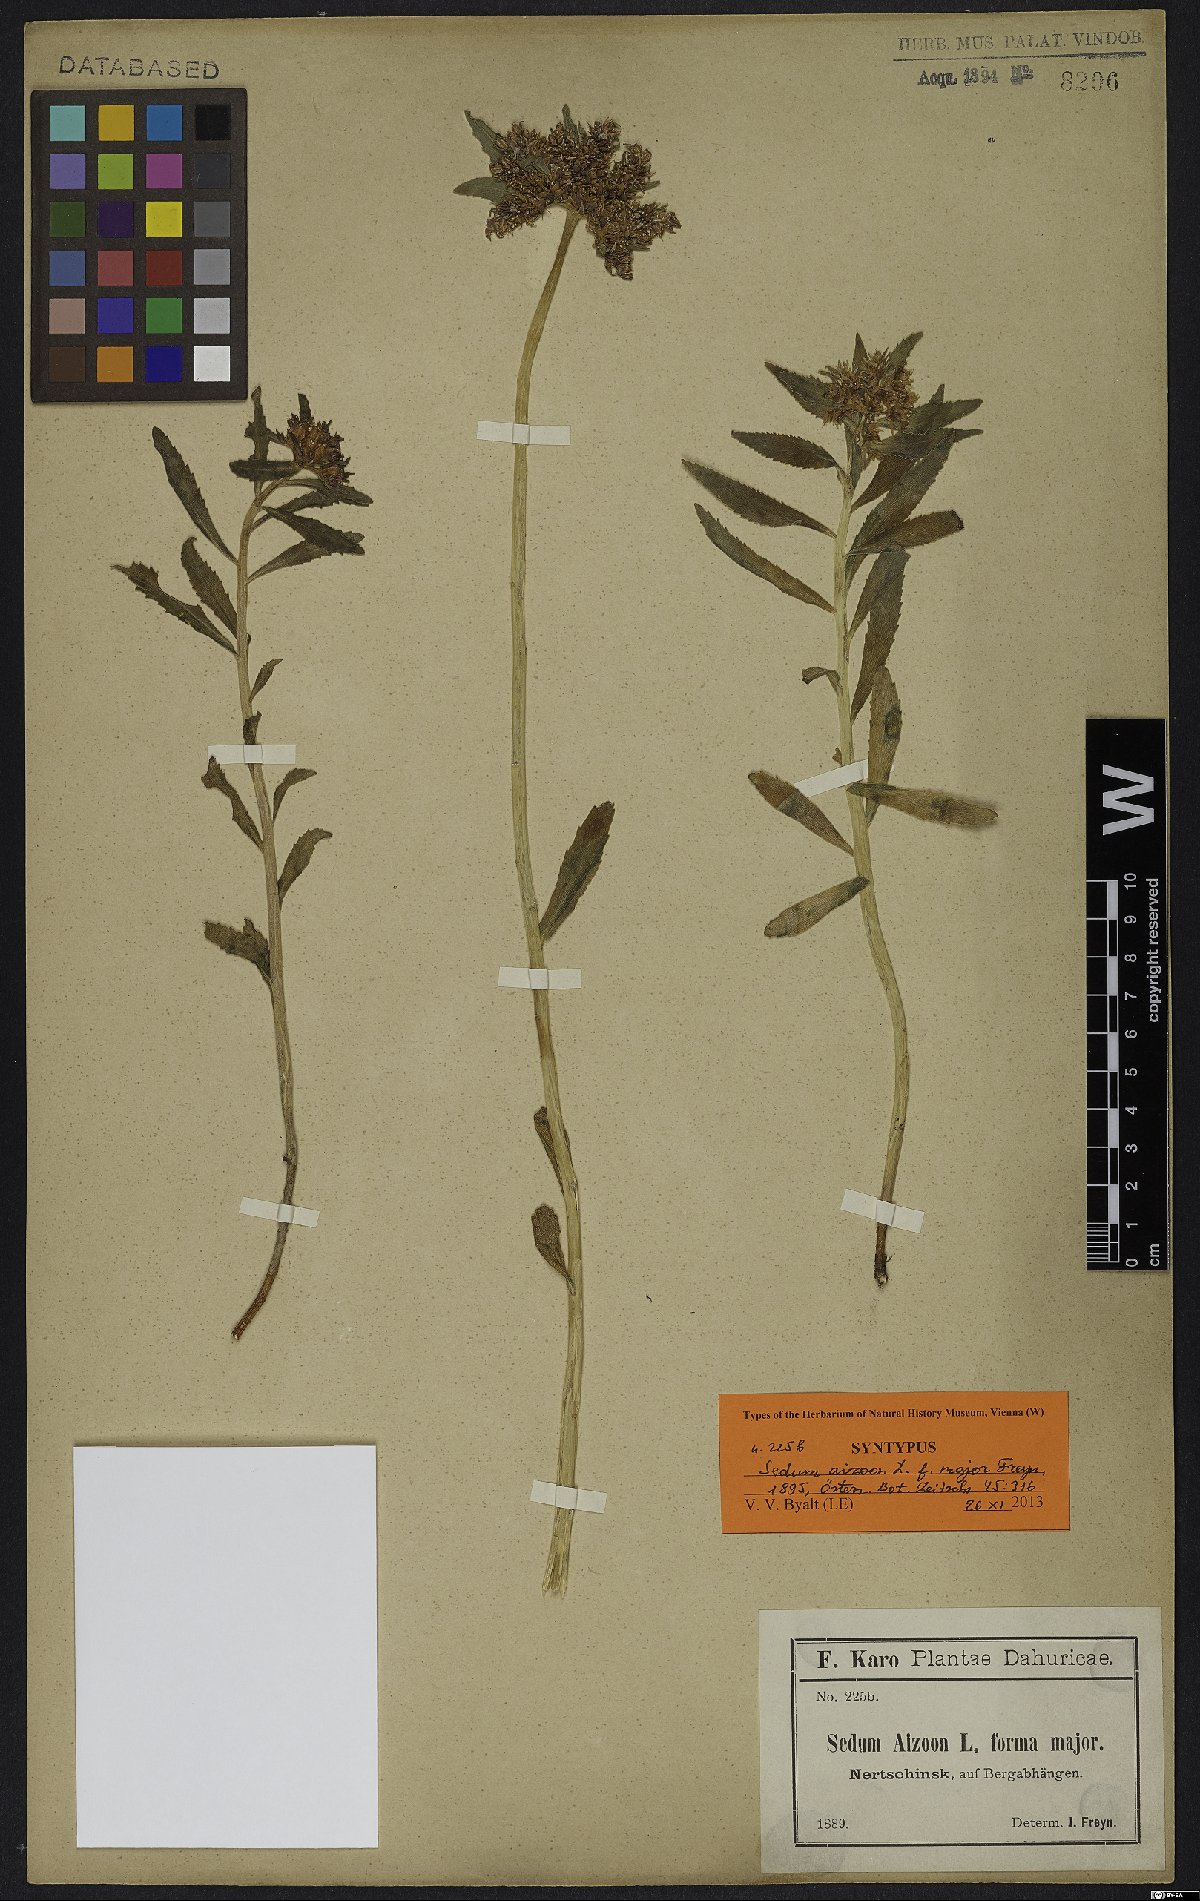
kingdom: Plantae
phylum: Tracheophyta
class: Magnoliopsida
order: Saxifragales
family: Crassulaceae
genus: Sedum
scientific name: Sedum aizoon
